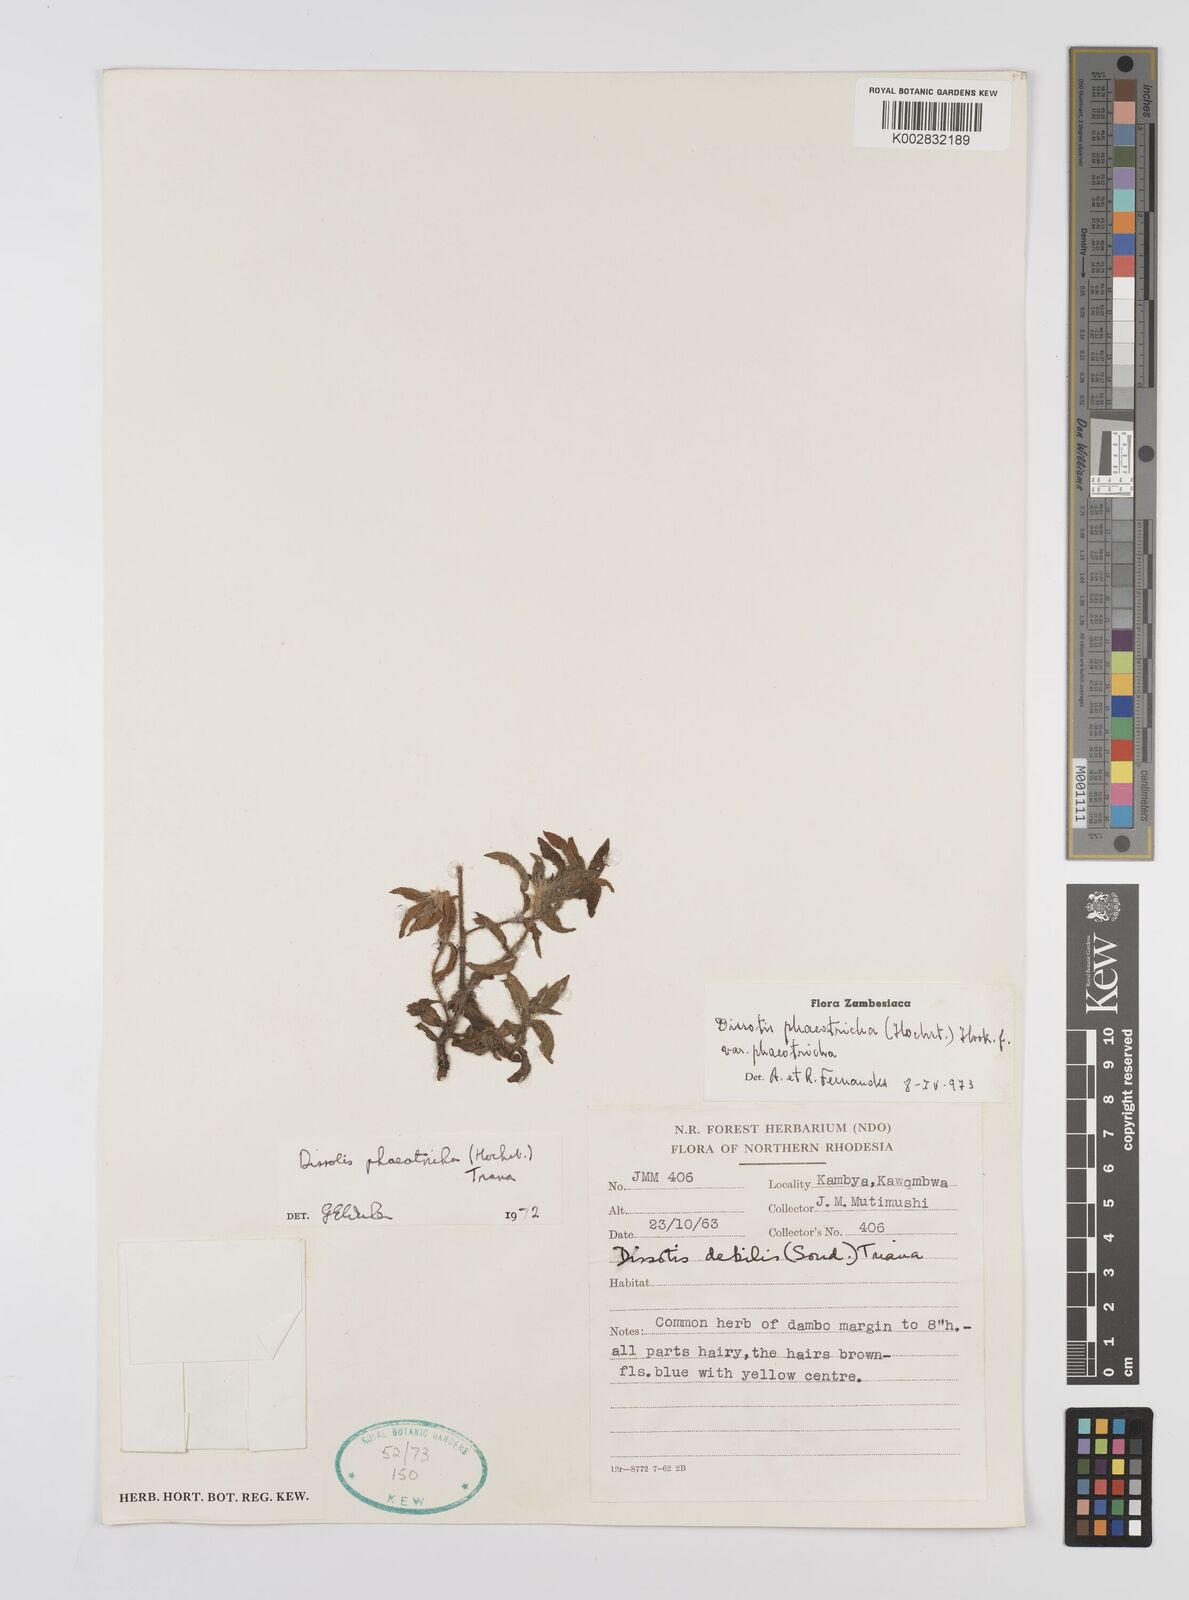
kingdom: Plantae
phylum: Tracheophyta
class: Magnoliopsida
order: Myrtales
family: Melastomataceae
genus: Antherotoma
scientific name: Antherotoma phaeotricha
